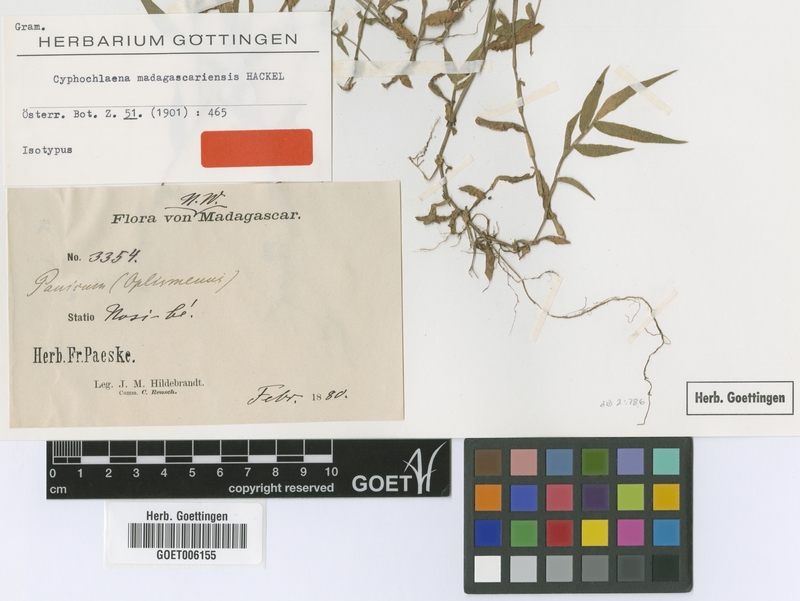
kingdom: Plantae
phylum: Tracheophyta
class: Liliopsida
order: Poales
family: Poaceae
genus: Cyphochlaena
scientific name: Cyphochlaena madagascariensis
